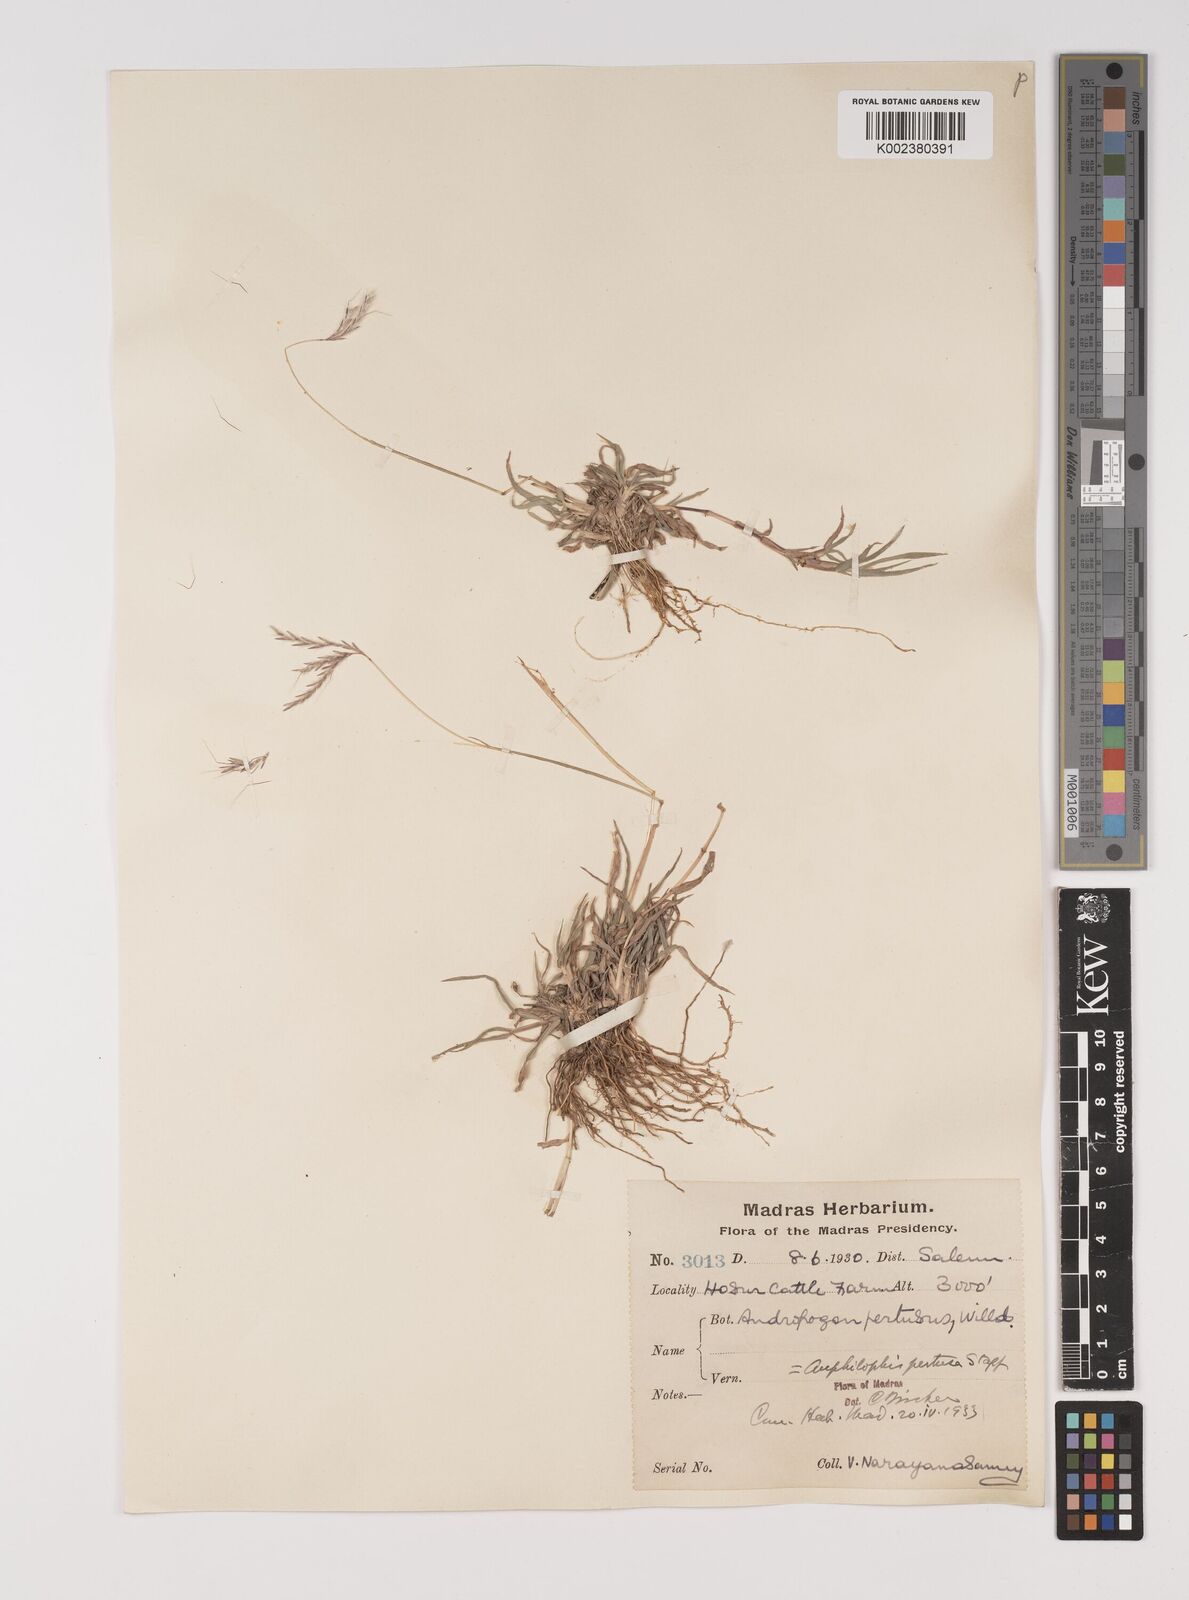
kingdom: Plantae
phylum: Tracheophyta
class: Liliopsida
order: Poales
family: Poaceae
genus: Bothriochloa
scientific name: Bothriochloa pertusa
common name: Pitted beardgrass
